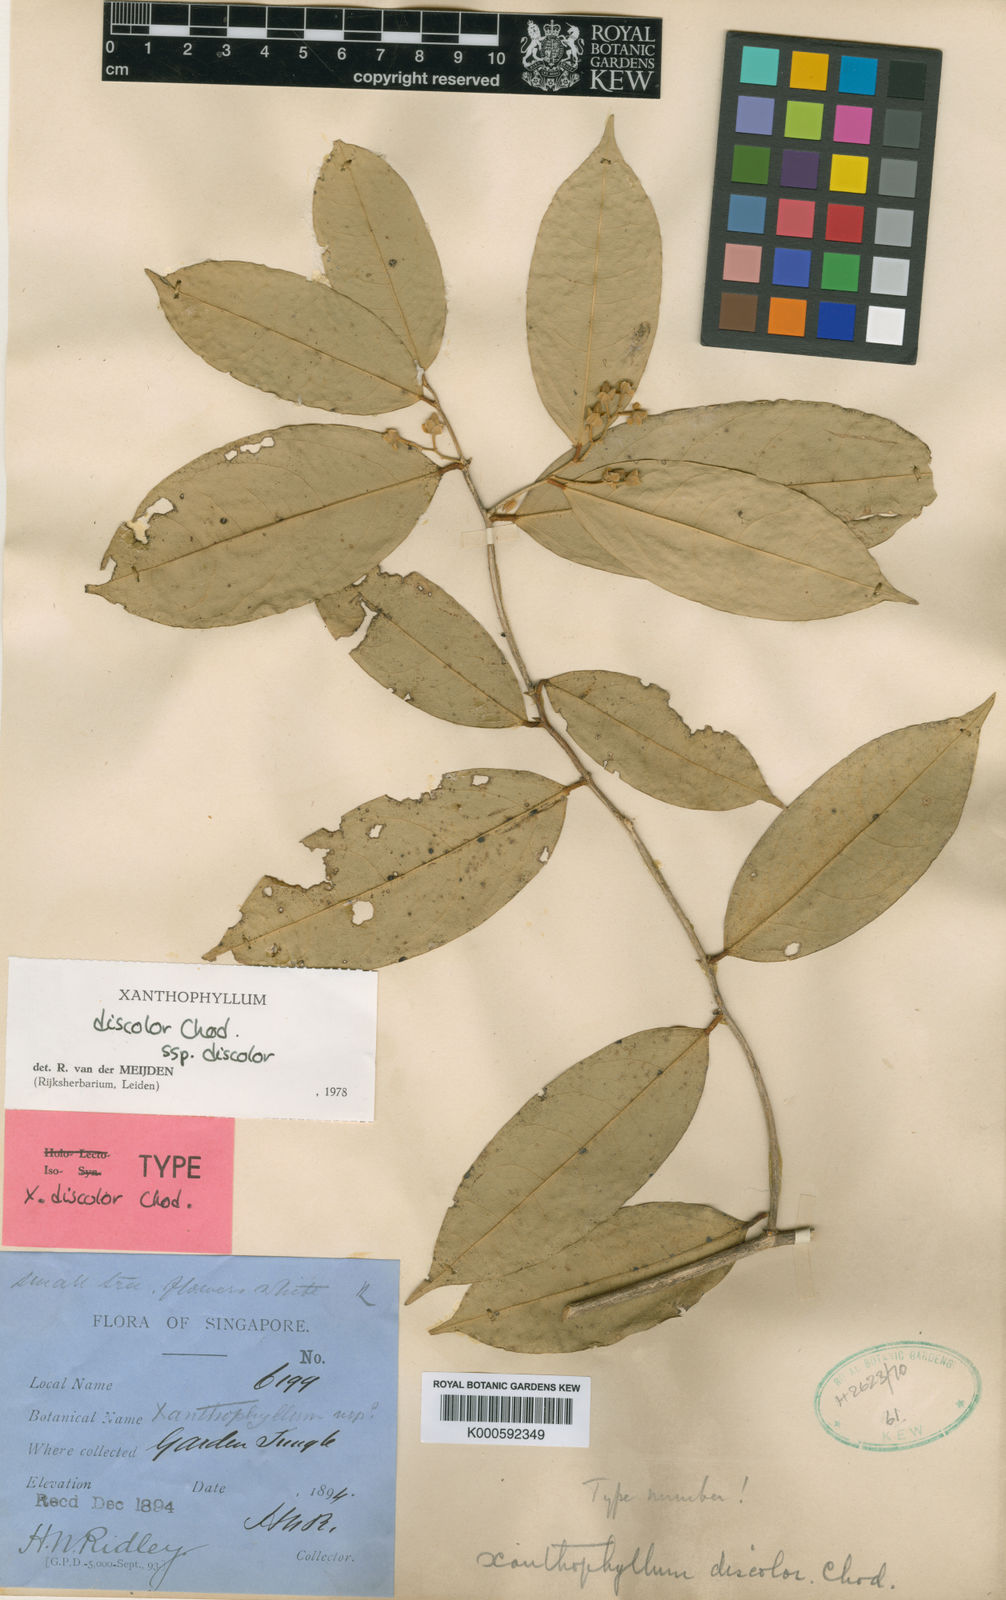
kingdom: Plantae
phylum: Tracheophyta
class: Magnoliopsida
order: Fabales
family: Polygalaceae
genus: Xanthophyllum
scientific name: Xanthophyllum discolor
